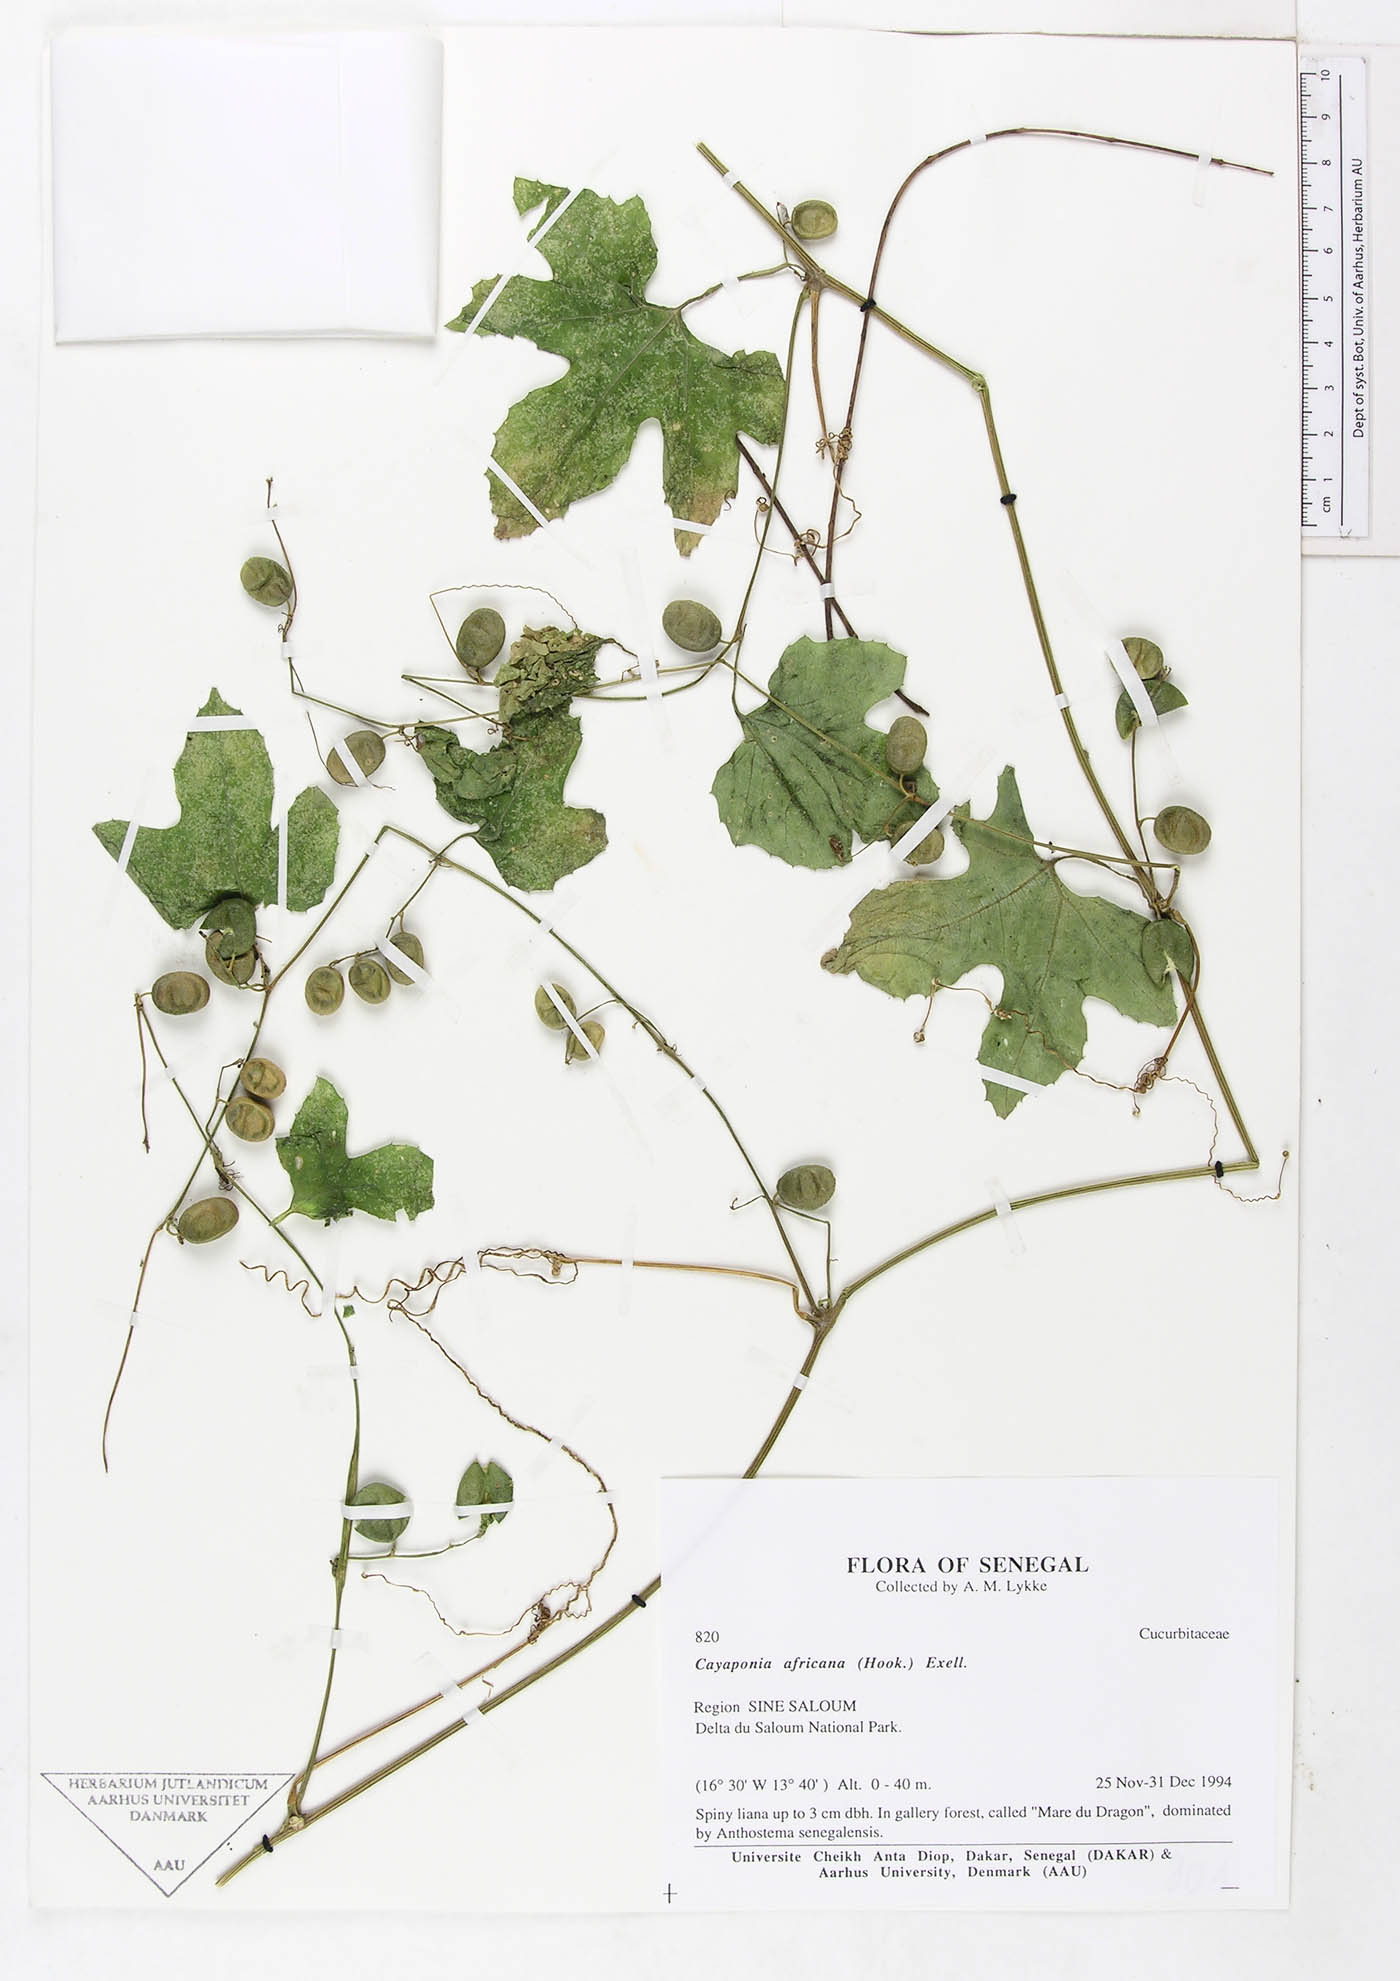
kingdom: Plantae
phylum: Tracheophyta
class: Magnoliopsida
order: Cucurbitales
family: Cucurbitaceae
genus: Cayaponia
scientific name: Cayaponia africana
